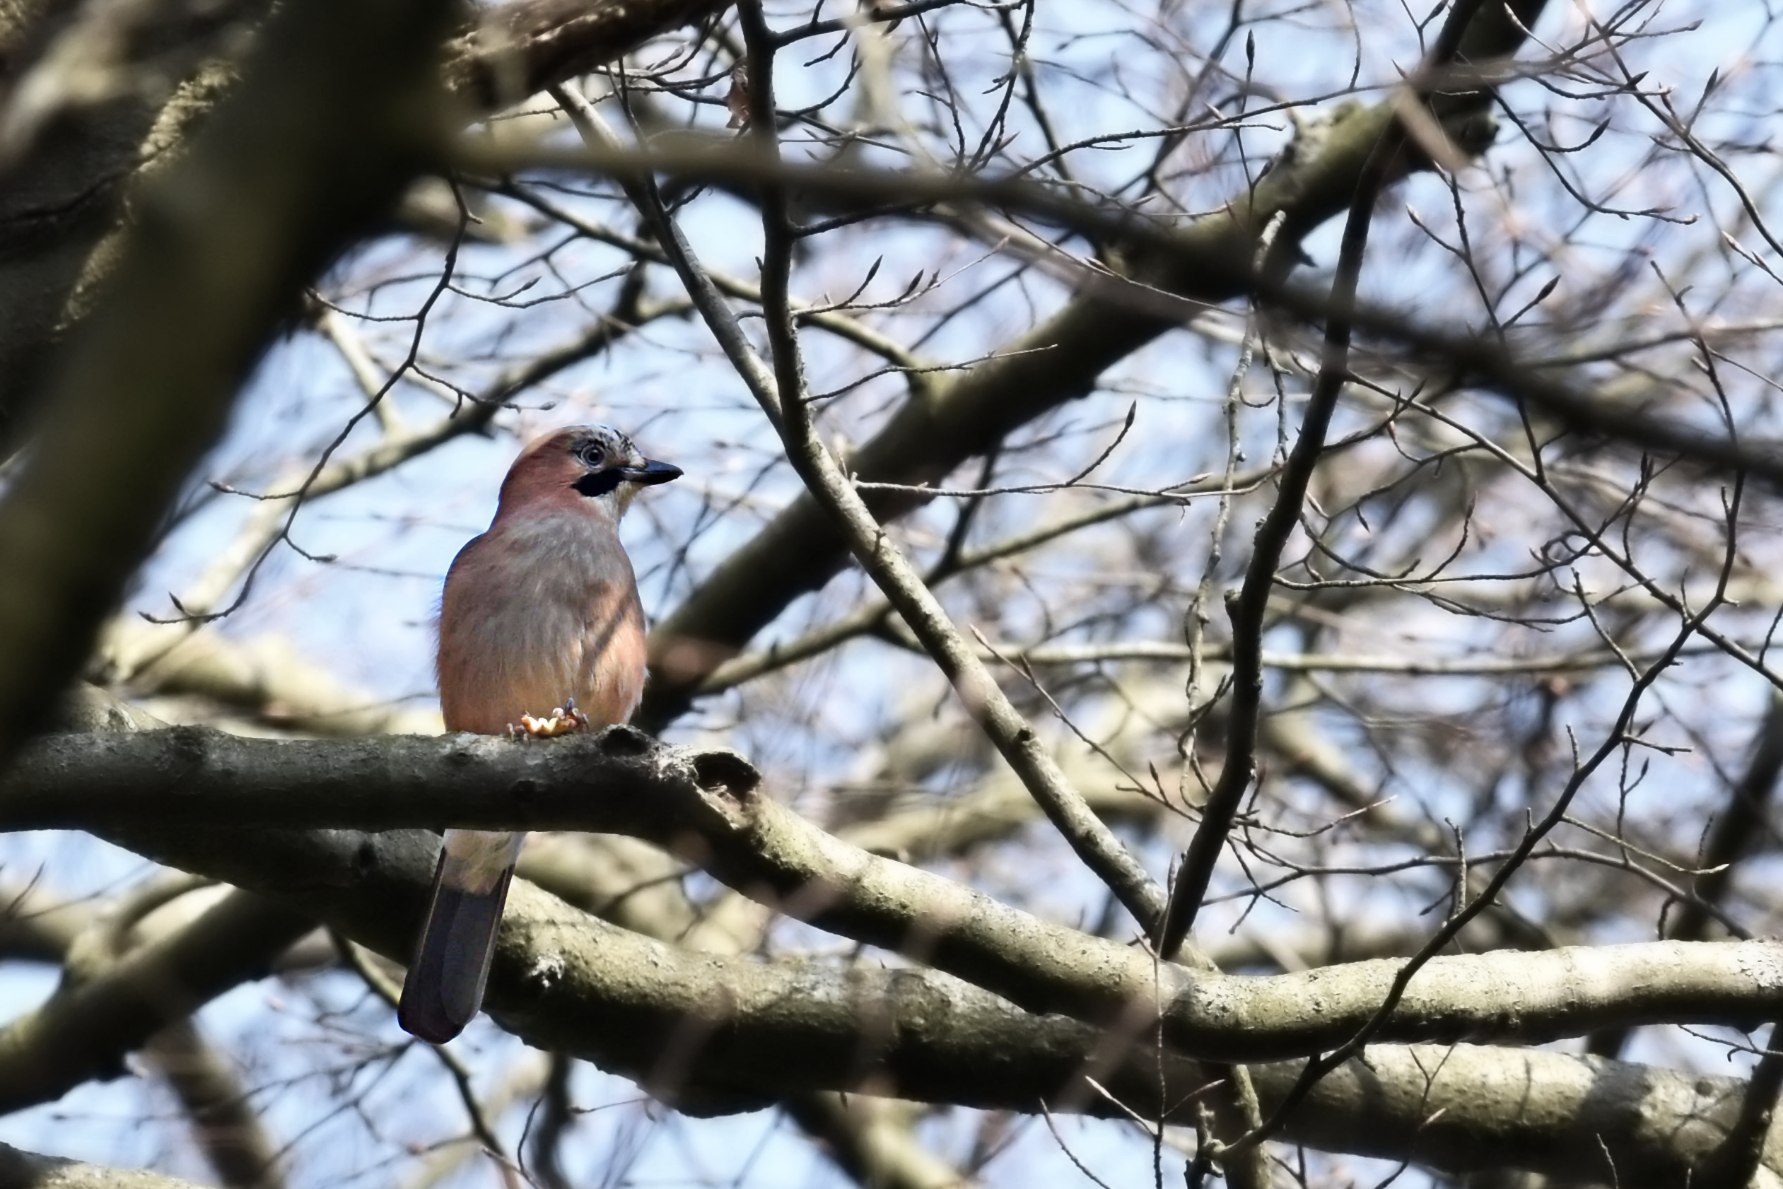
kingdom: Animalia
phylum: Chordata
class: Aves
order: Passeriformes
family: Corvidae
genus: Garrulus
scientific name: Garrulus glandarius
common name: Skovskade
